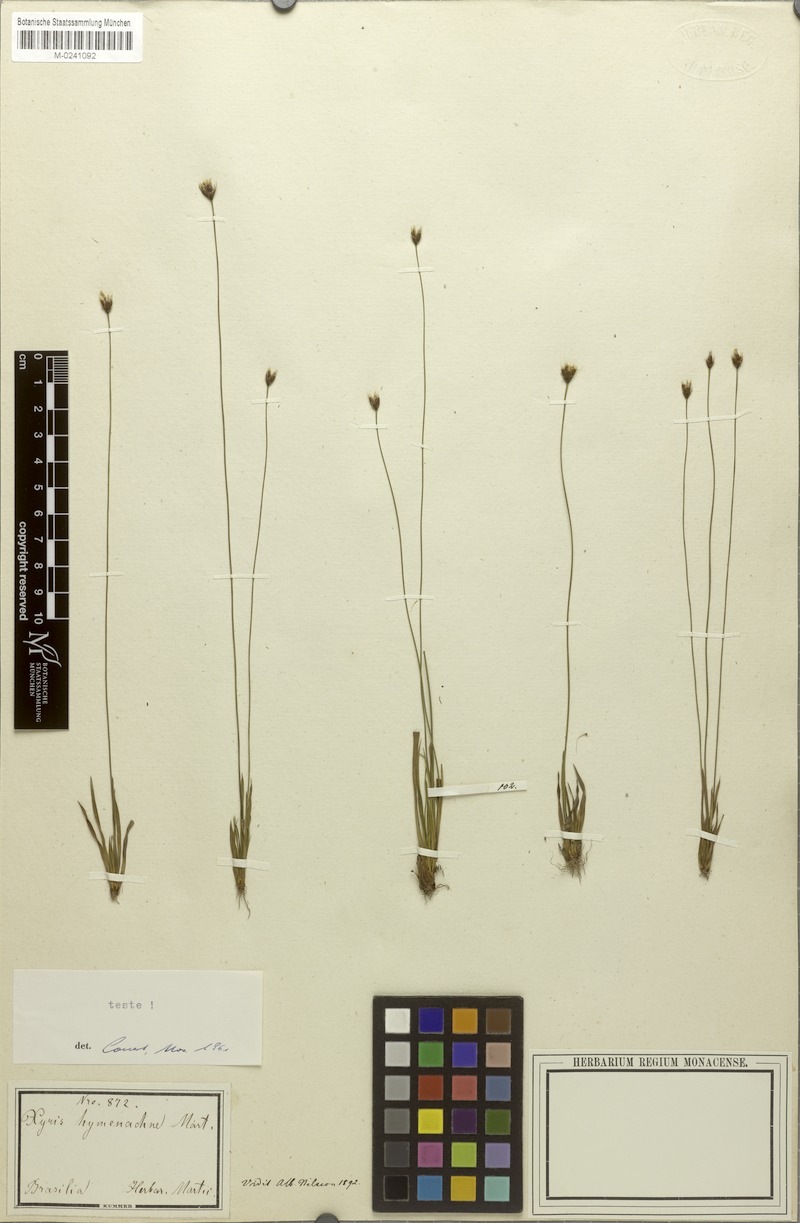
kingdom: Plantae
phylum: Tracheophyta
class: Liliopsida
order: Poales
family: Xyridaceae
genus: Xyris
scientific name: Xyris hymenachne
